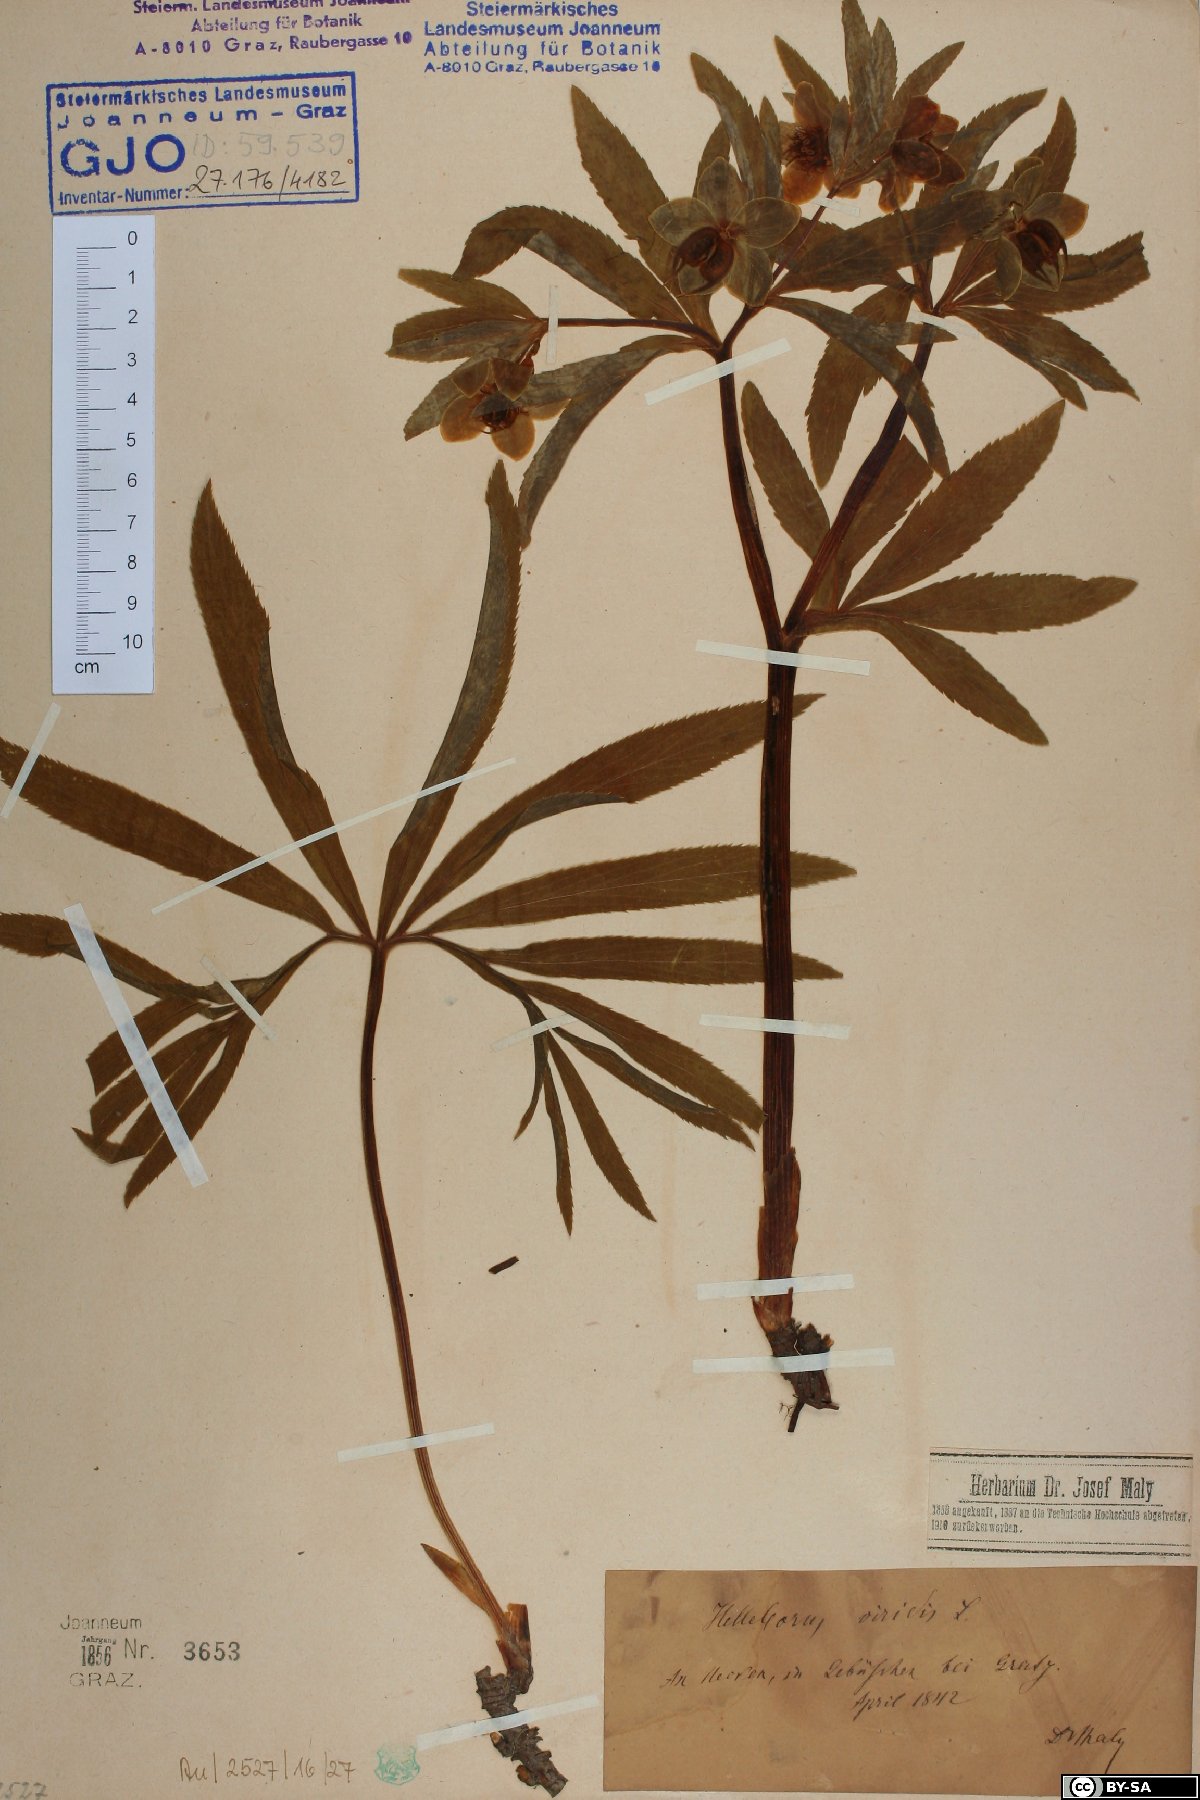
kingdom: Plantae
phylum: Tracheophyta
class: Magnoliopsida
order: Ranunculales
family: Ranunculaceae
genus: Helleborus
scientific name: Helleborus dumetorum
